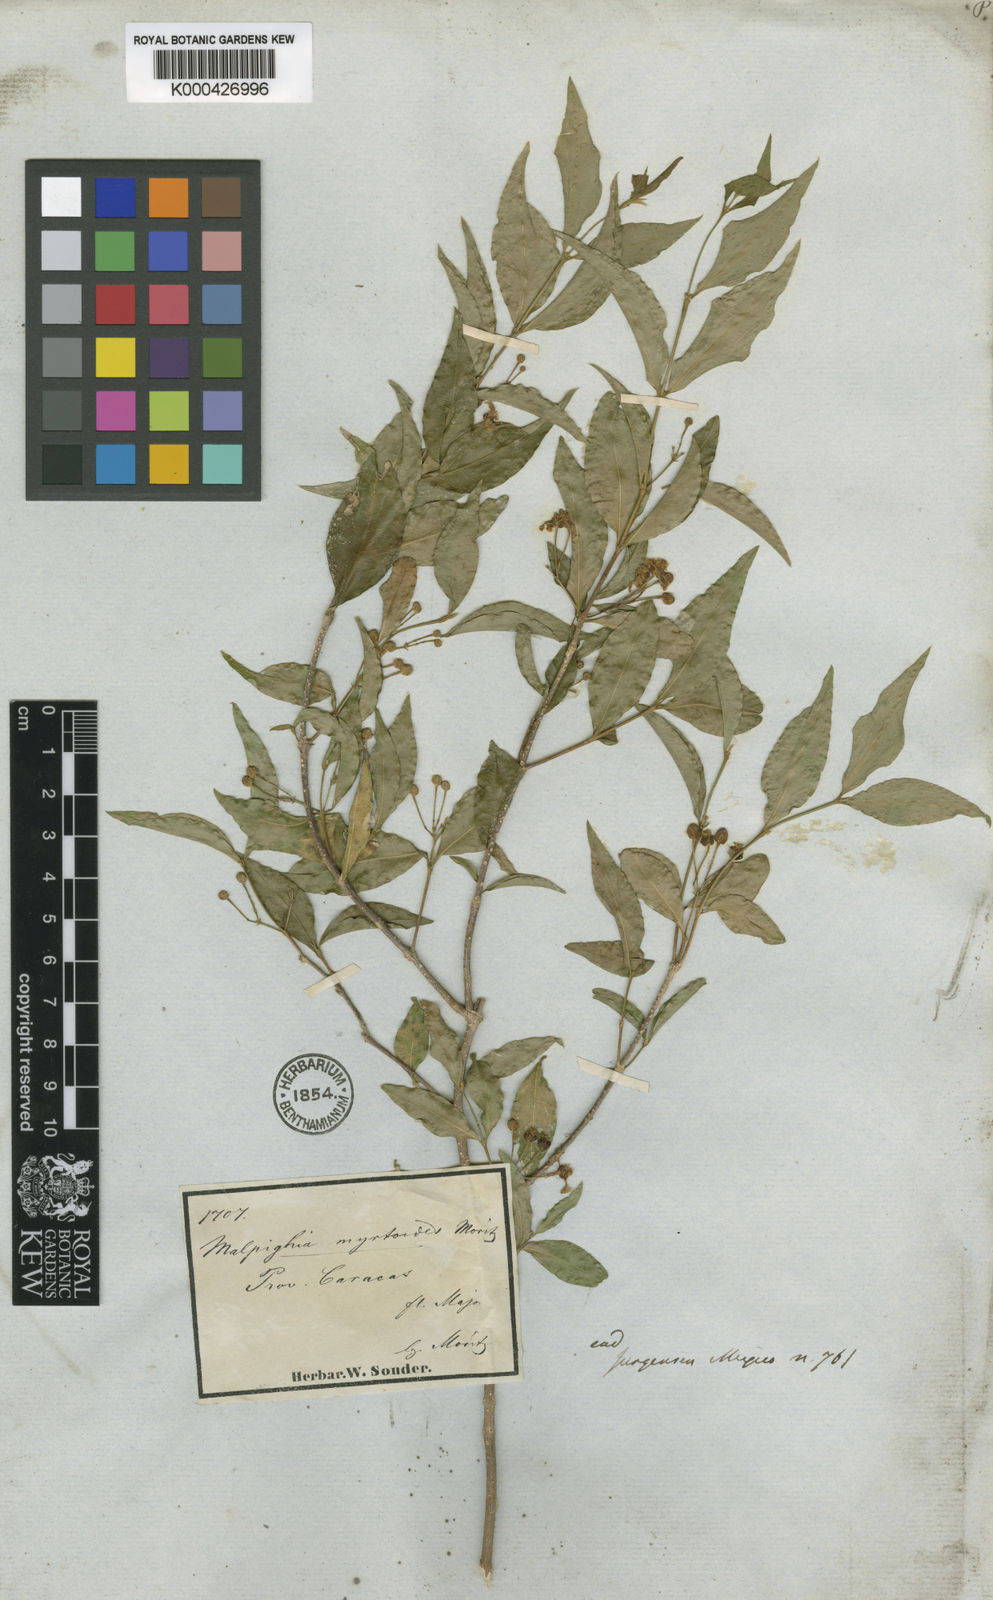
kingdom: Plantae
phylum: Tracheophyta
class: Magnoliopsida
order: Malpighiales
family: Malpighiaceae
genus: Malpighia
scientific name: Malpighia glabra
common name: Barbados cherry
